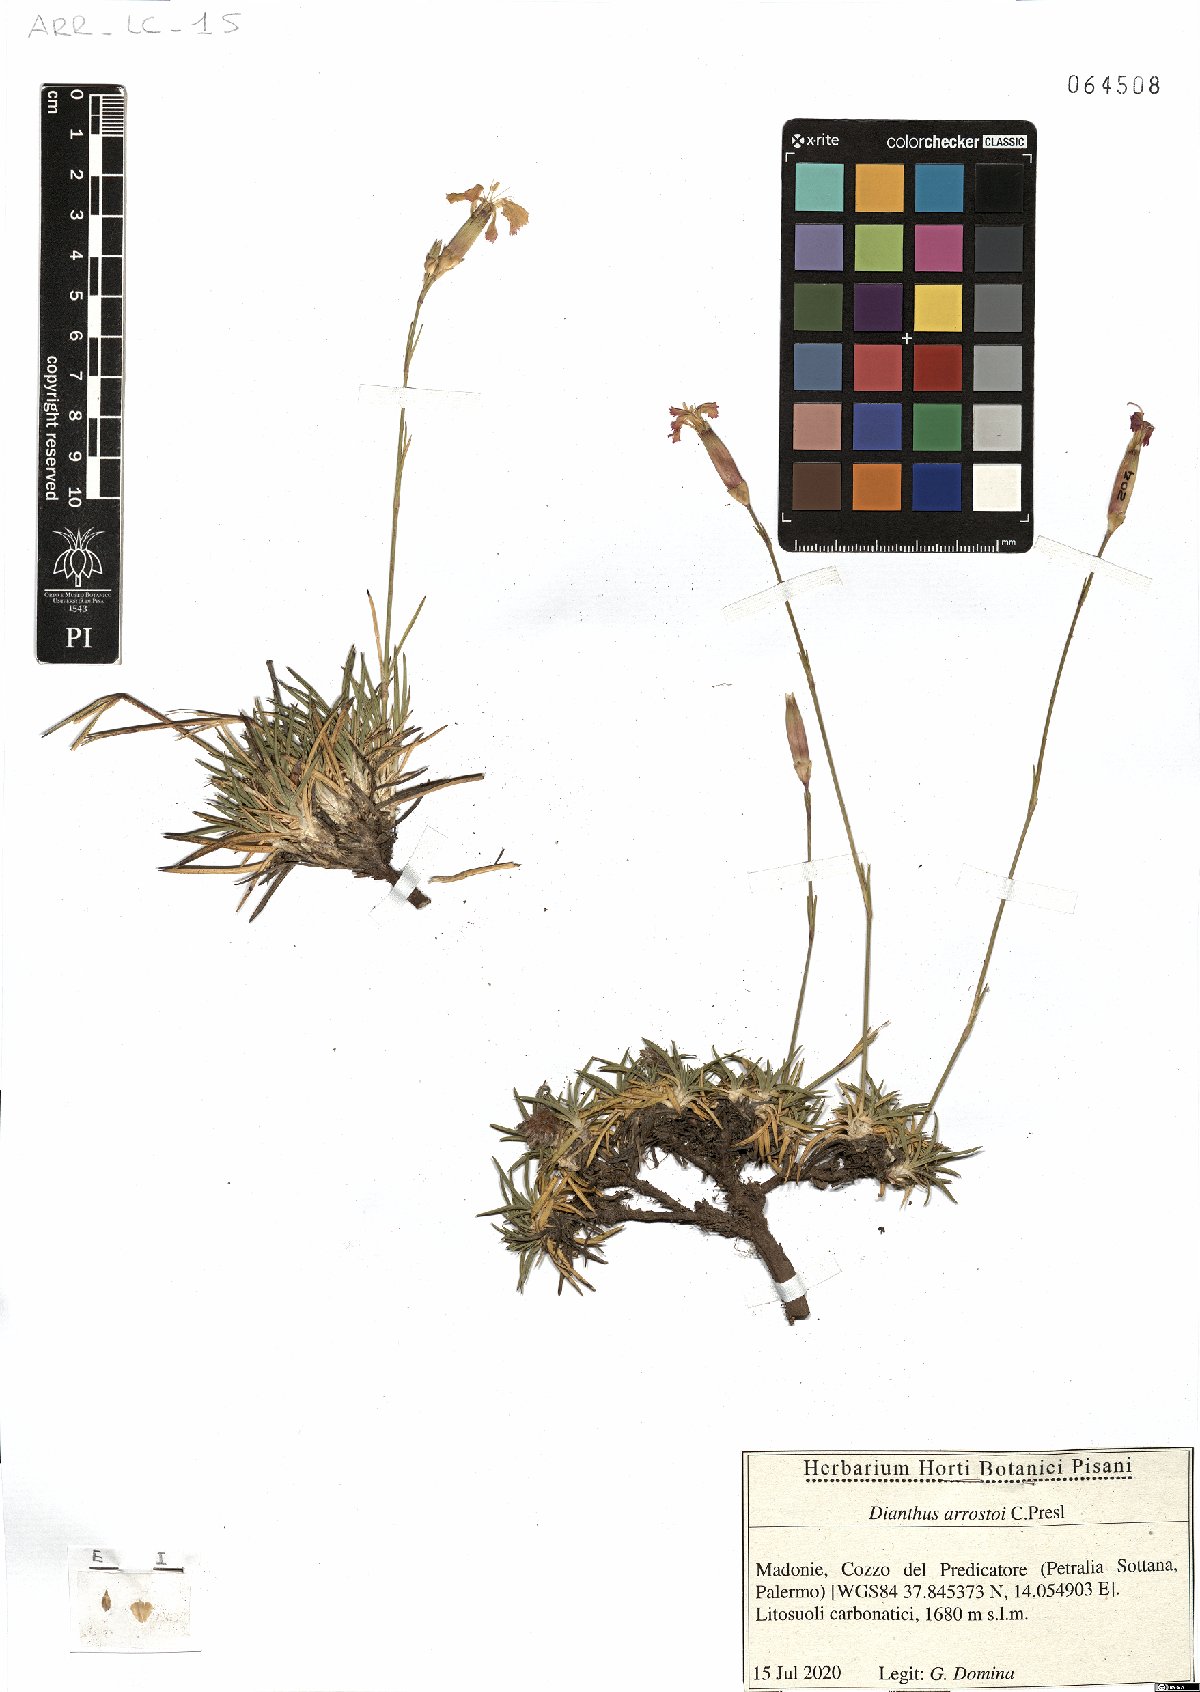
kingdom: Plantae
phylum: Tracheophyta
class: Magnoliopsida
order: Caryophyllales
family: Caryophyllaceae
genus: Dianthus
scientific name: Dianthus arrostoi
